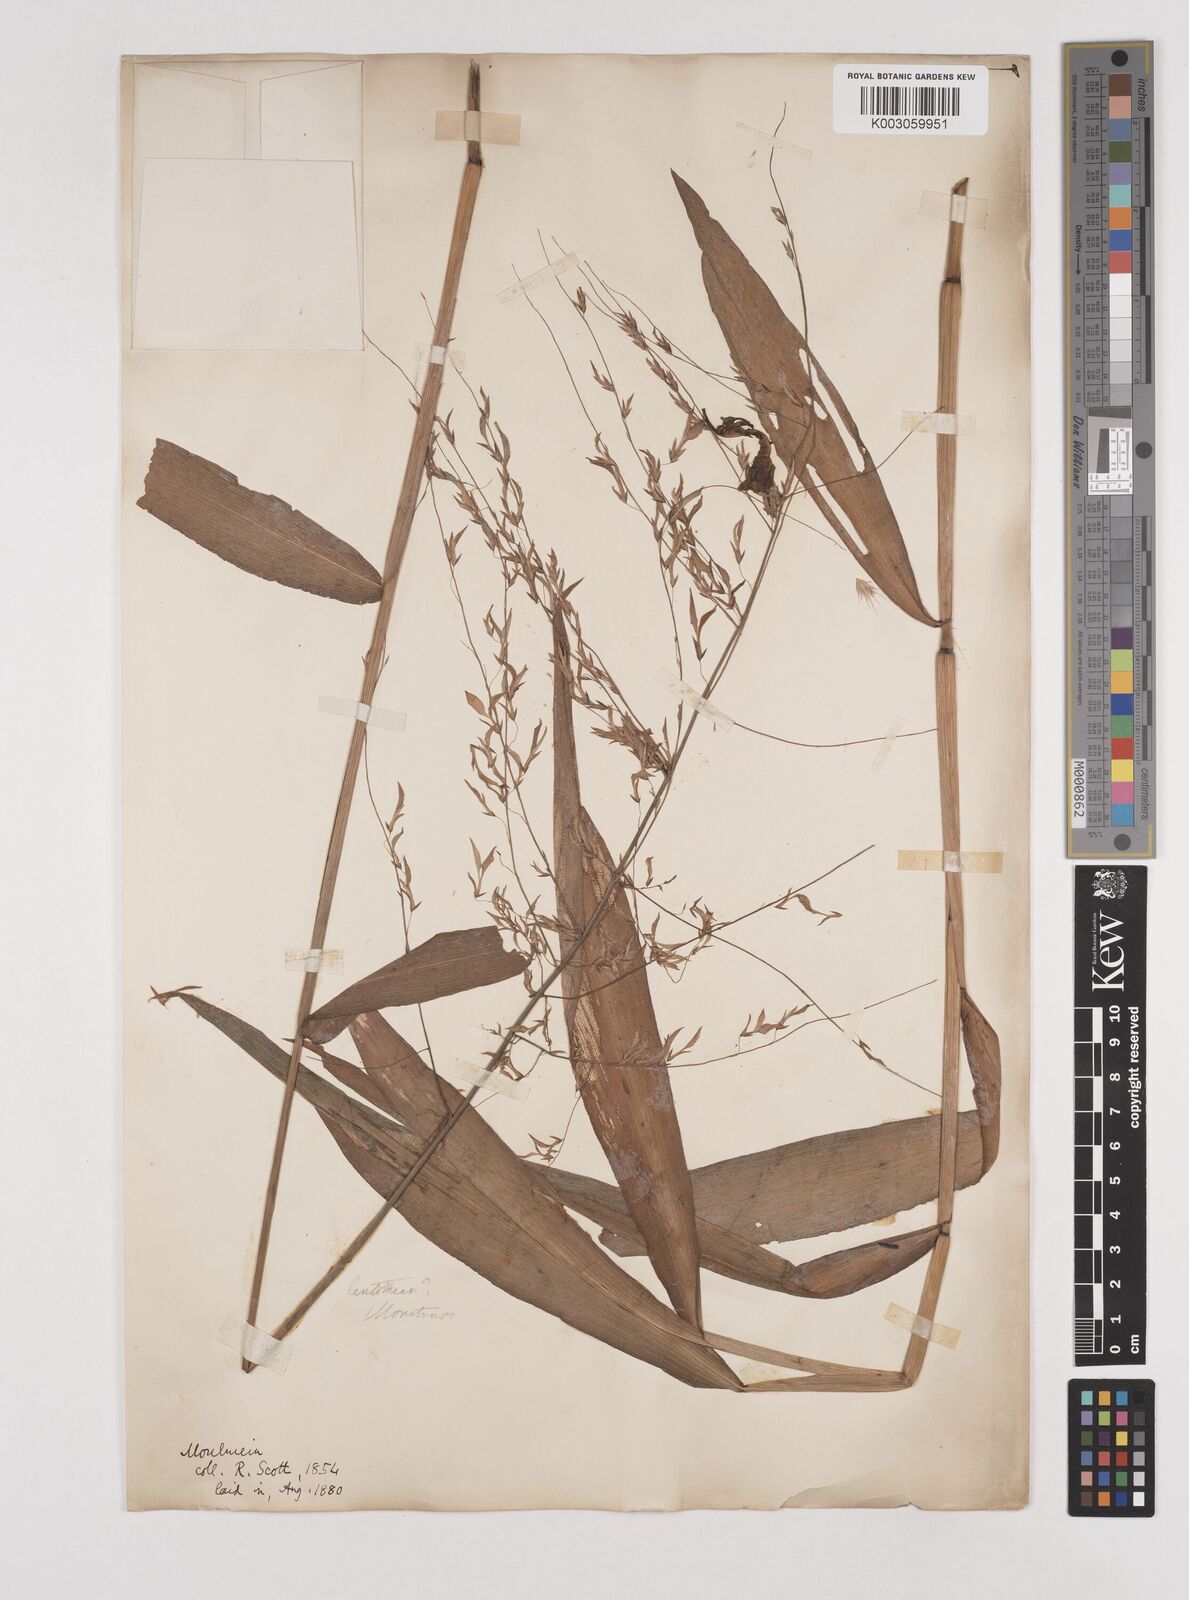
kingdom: Plantae
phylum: Tracheophyta
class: Liliopsida
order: Poales
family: Poaceae
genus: Centotheca
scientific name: Centotheca lappacea
